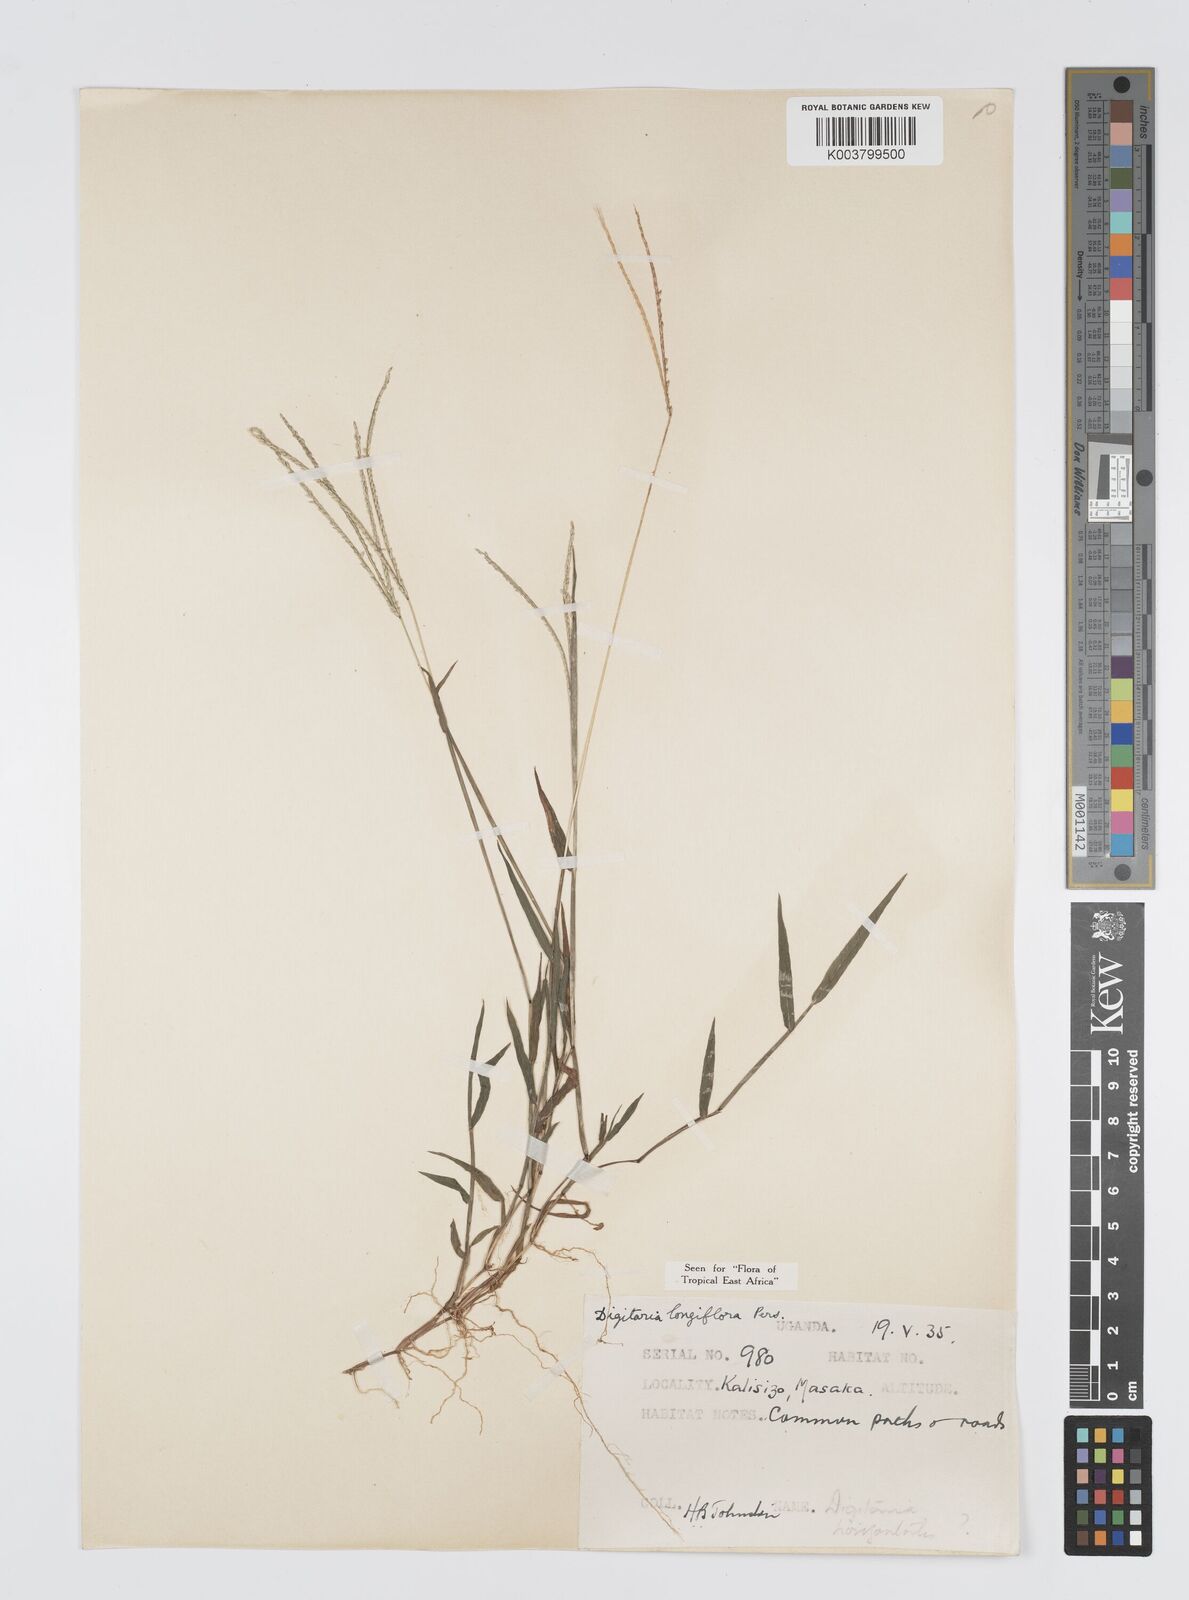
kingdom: Plantae
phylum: Tracheophyta
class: Liliopsida
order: Poales
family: Poaceae
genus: Digitaria
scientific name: Digitaria longiflora
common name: Wire crabgrass
